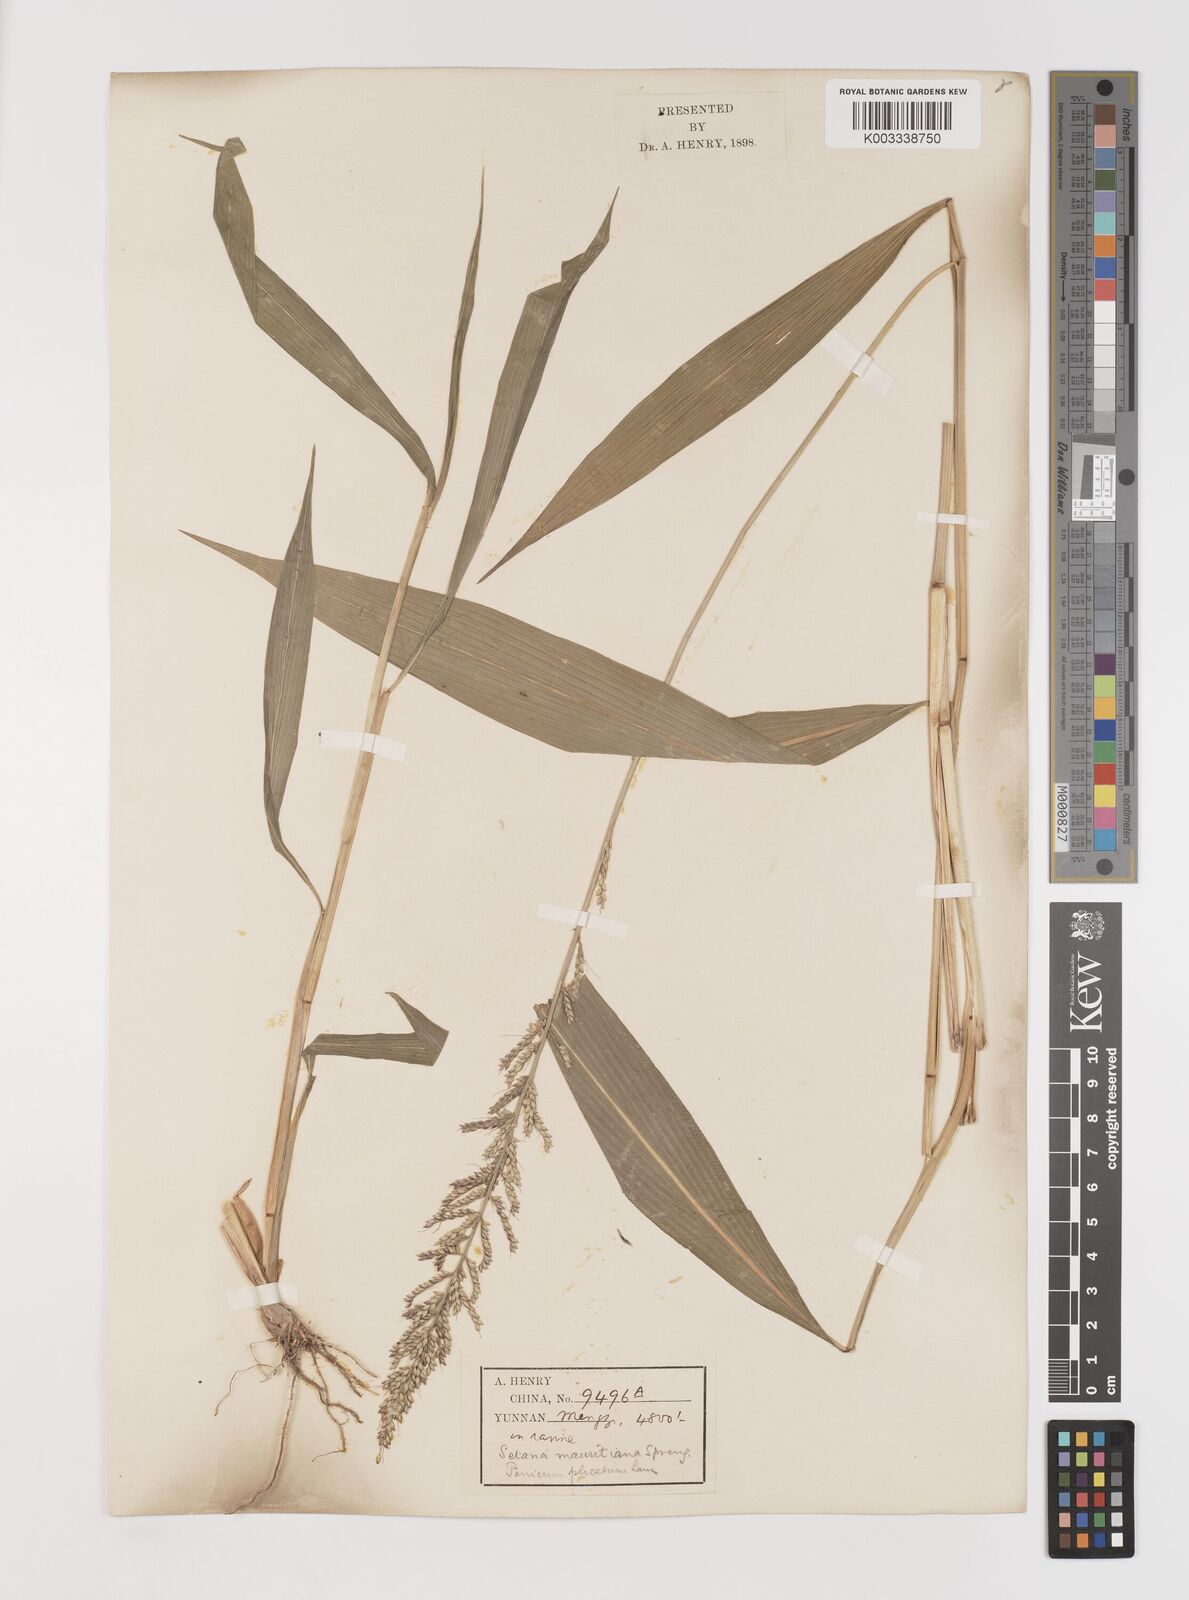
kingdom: Plantae
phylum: Tracheophyta
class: Liliopsida
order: Poales
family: Poaceae
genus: Setaria
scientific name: Setaria plicata
